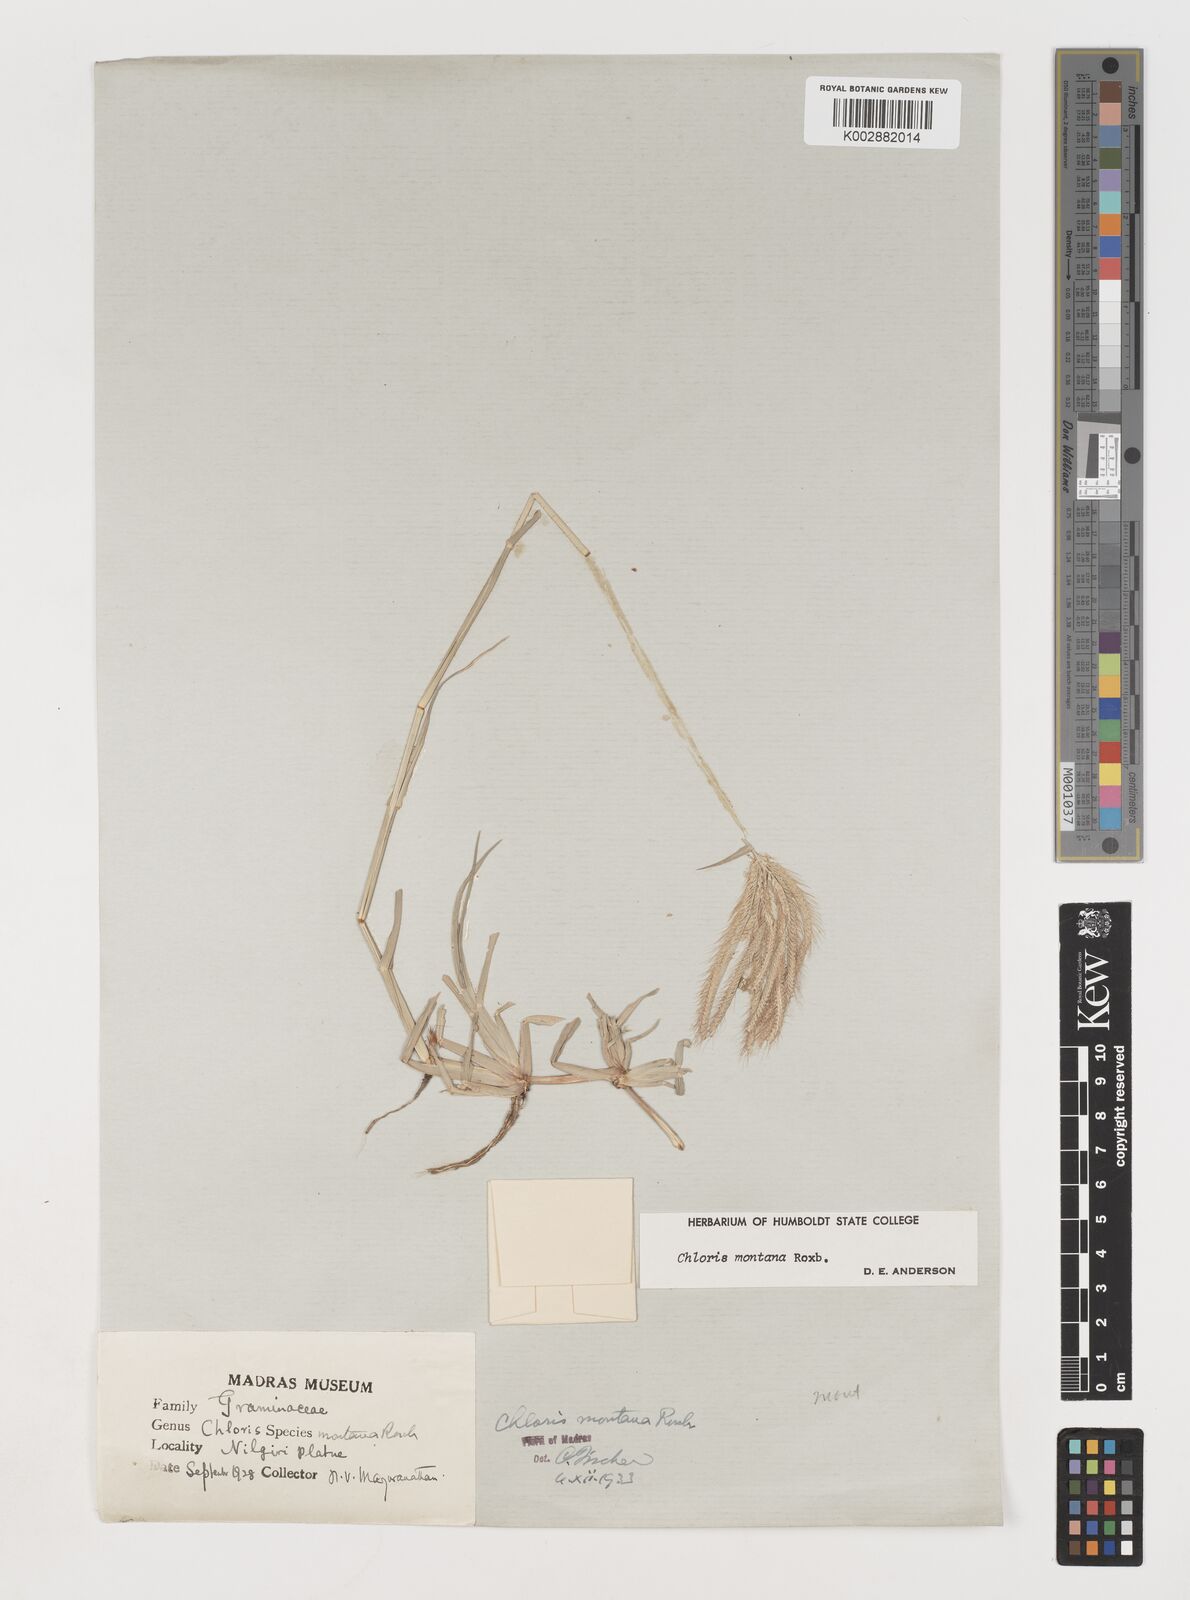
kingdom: Plantae
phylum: Tracheophyta
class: Liliopsida
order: Poales
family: Poaceae
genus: Chloris
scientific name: Chloris montana
